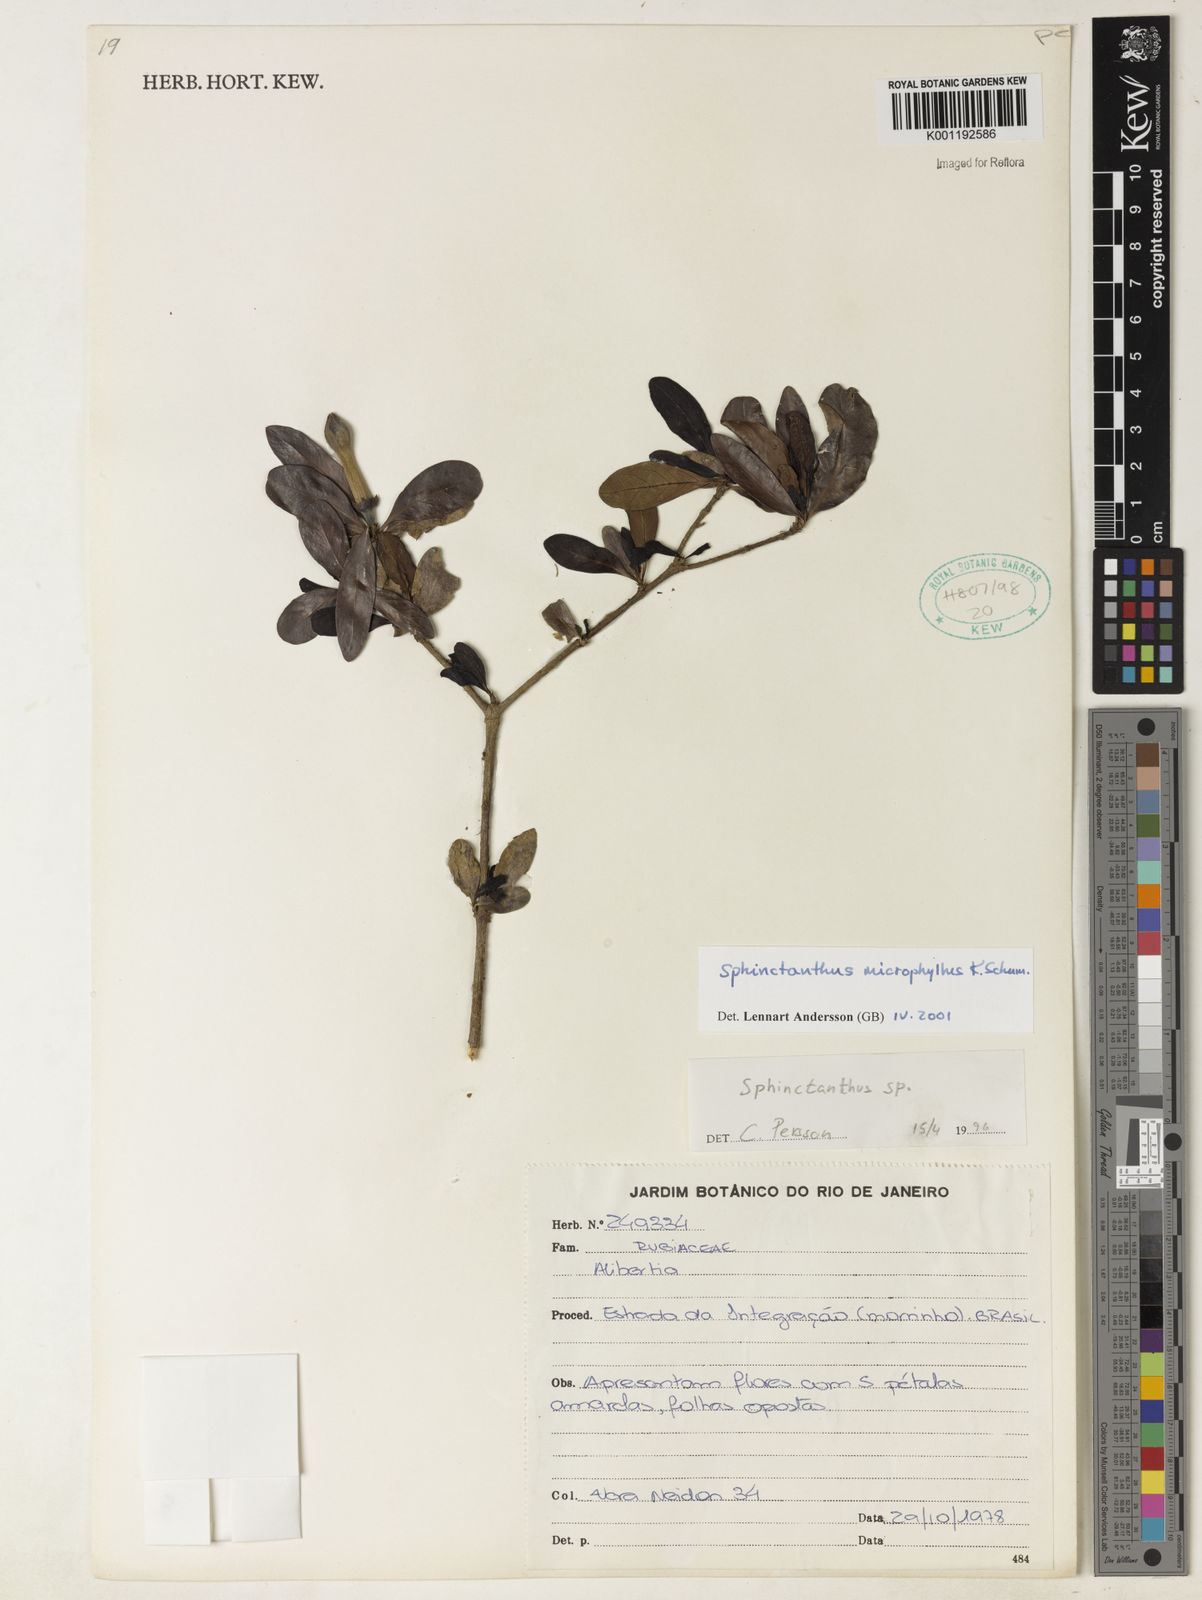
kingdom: Plantae
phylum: Tracheophyta
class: Magnoliopsida
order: Gentianales
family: Rubiaceae
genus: Sphinctanthus
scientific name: Sphinctanthus microphyllus
